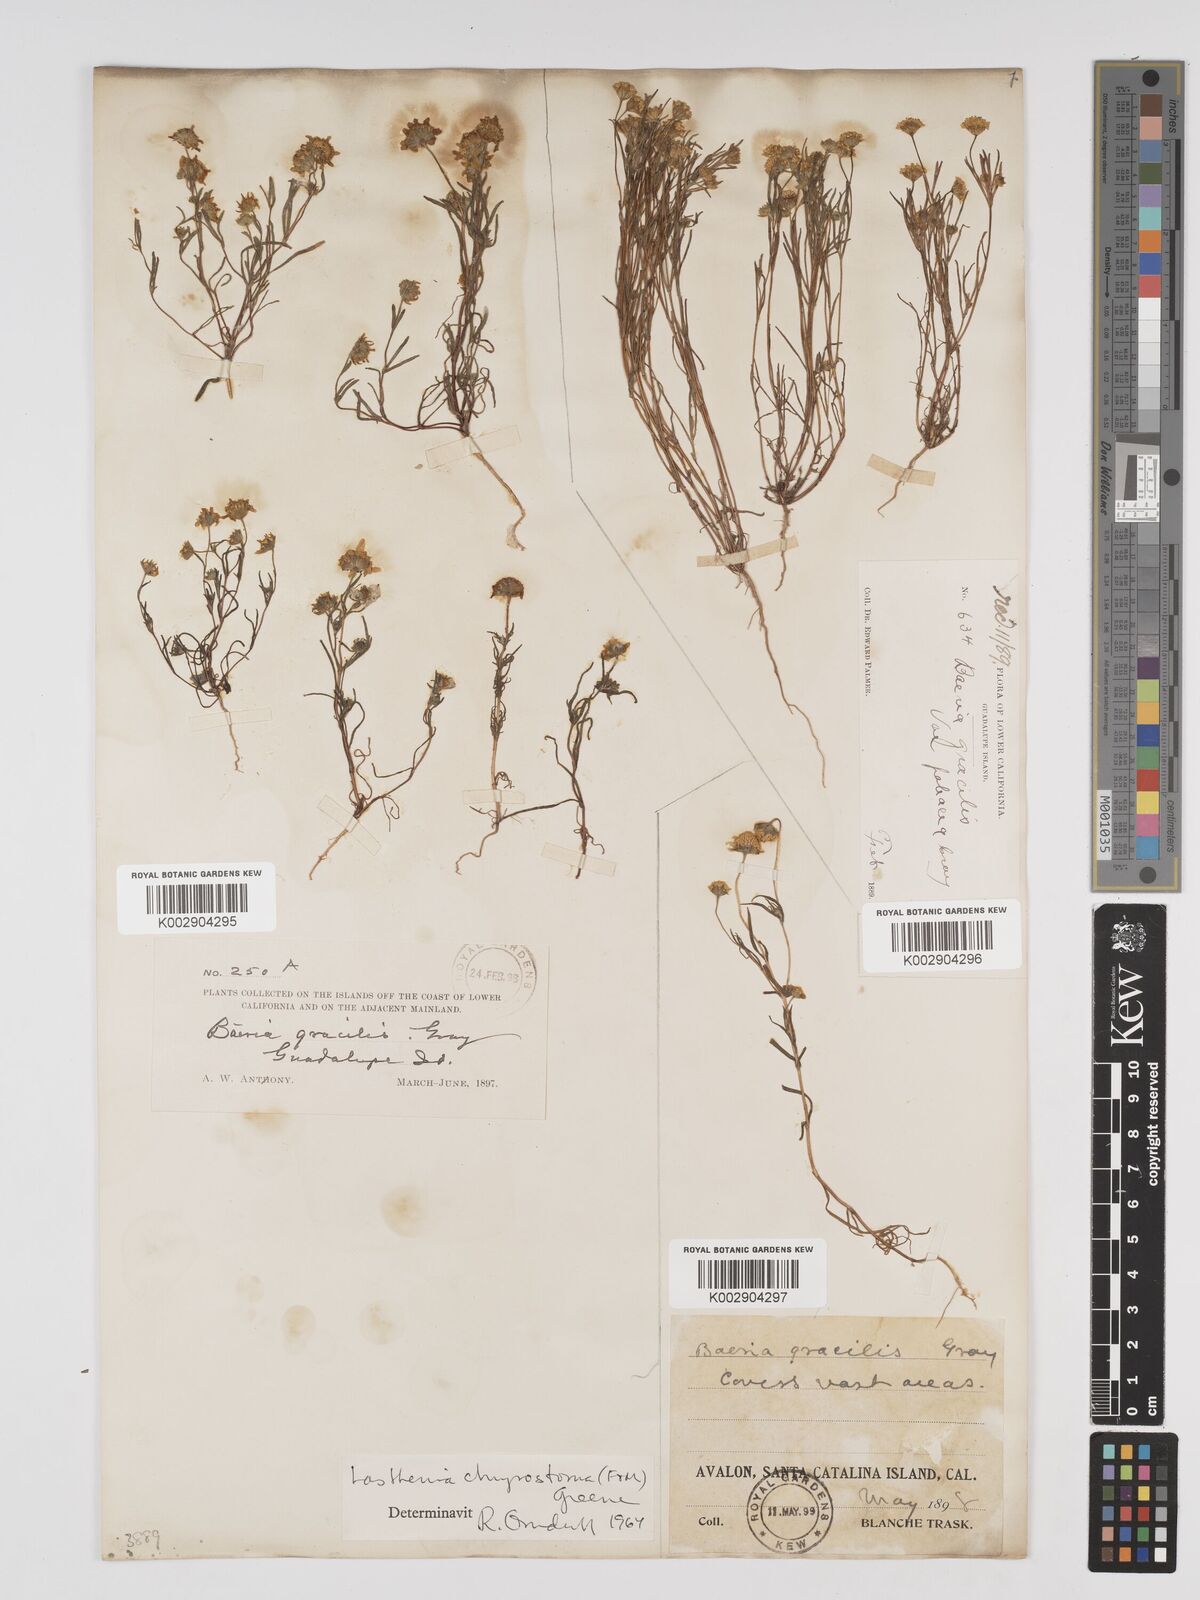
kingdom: Plantae
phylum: Tracheophyta
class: Magnoliopsida
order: Asterales
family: Asteraceae
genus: Lasthenia
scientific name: Lasthenia californica
